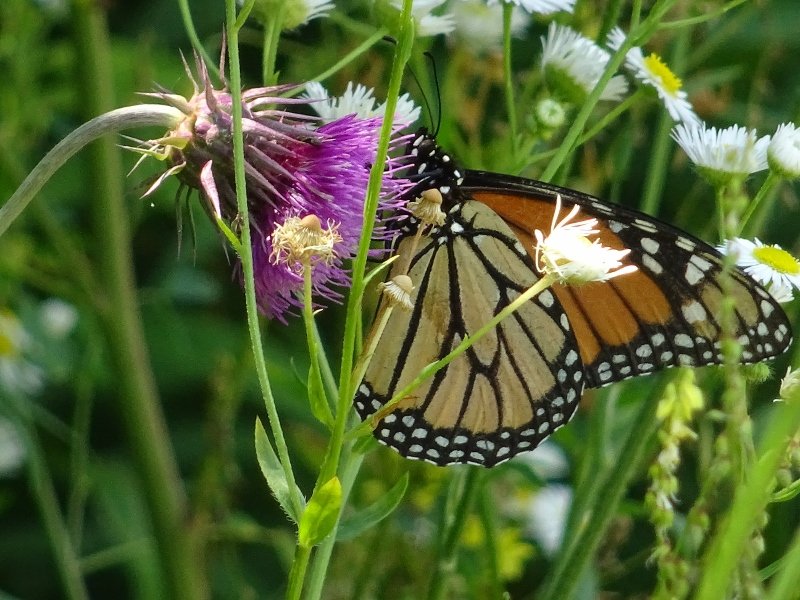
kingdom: Animalia
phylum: Arthropoda
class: Insecta
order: Lepidoptera
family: Nymphalidae
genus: Danaus
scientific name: Danaus plexippus
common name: Monarch
